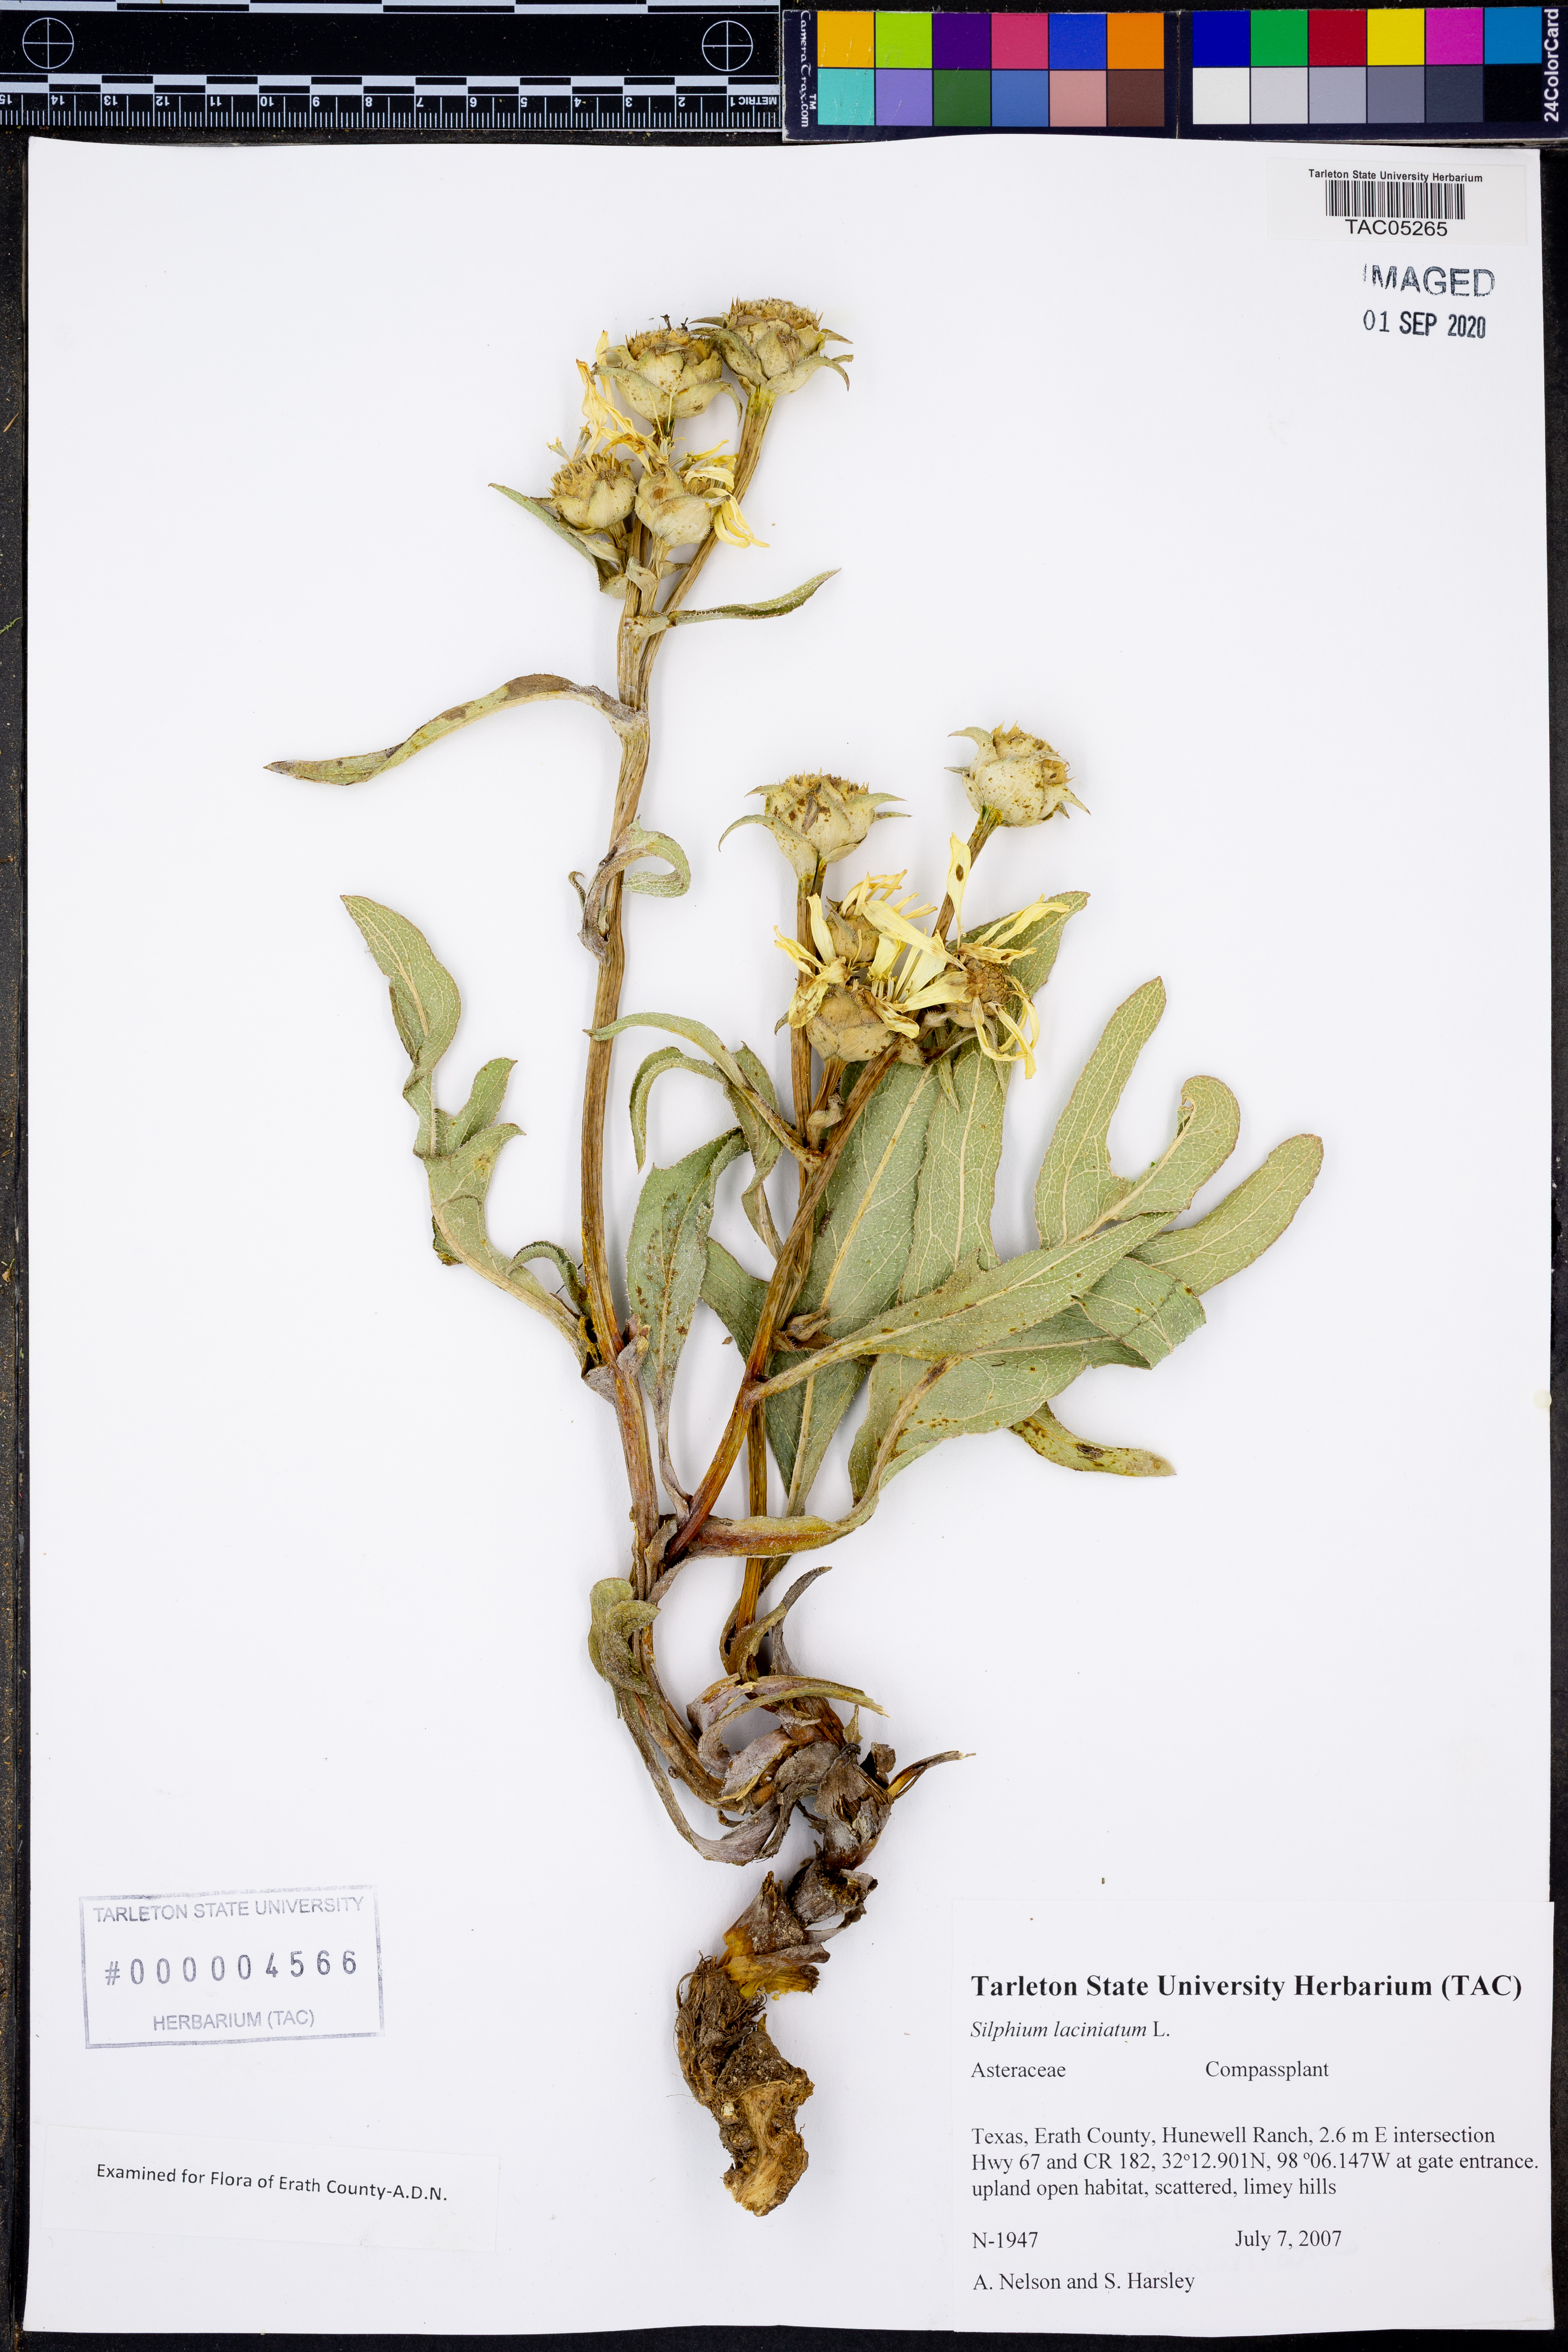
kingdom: Plantae
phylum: Tracheophyta
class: Magnoliopsida
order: Asterales
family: Asteraceae
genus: Silphium
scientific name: Silphium laciniatum
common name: Polarplant
